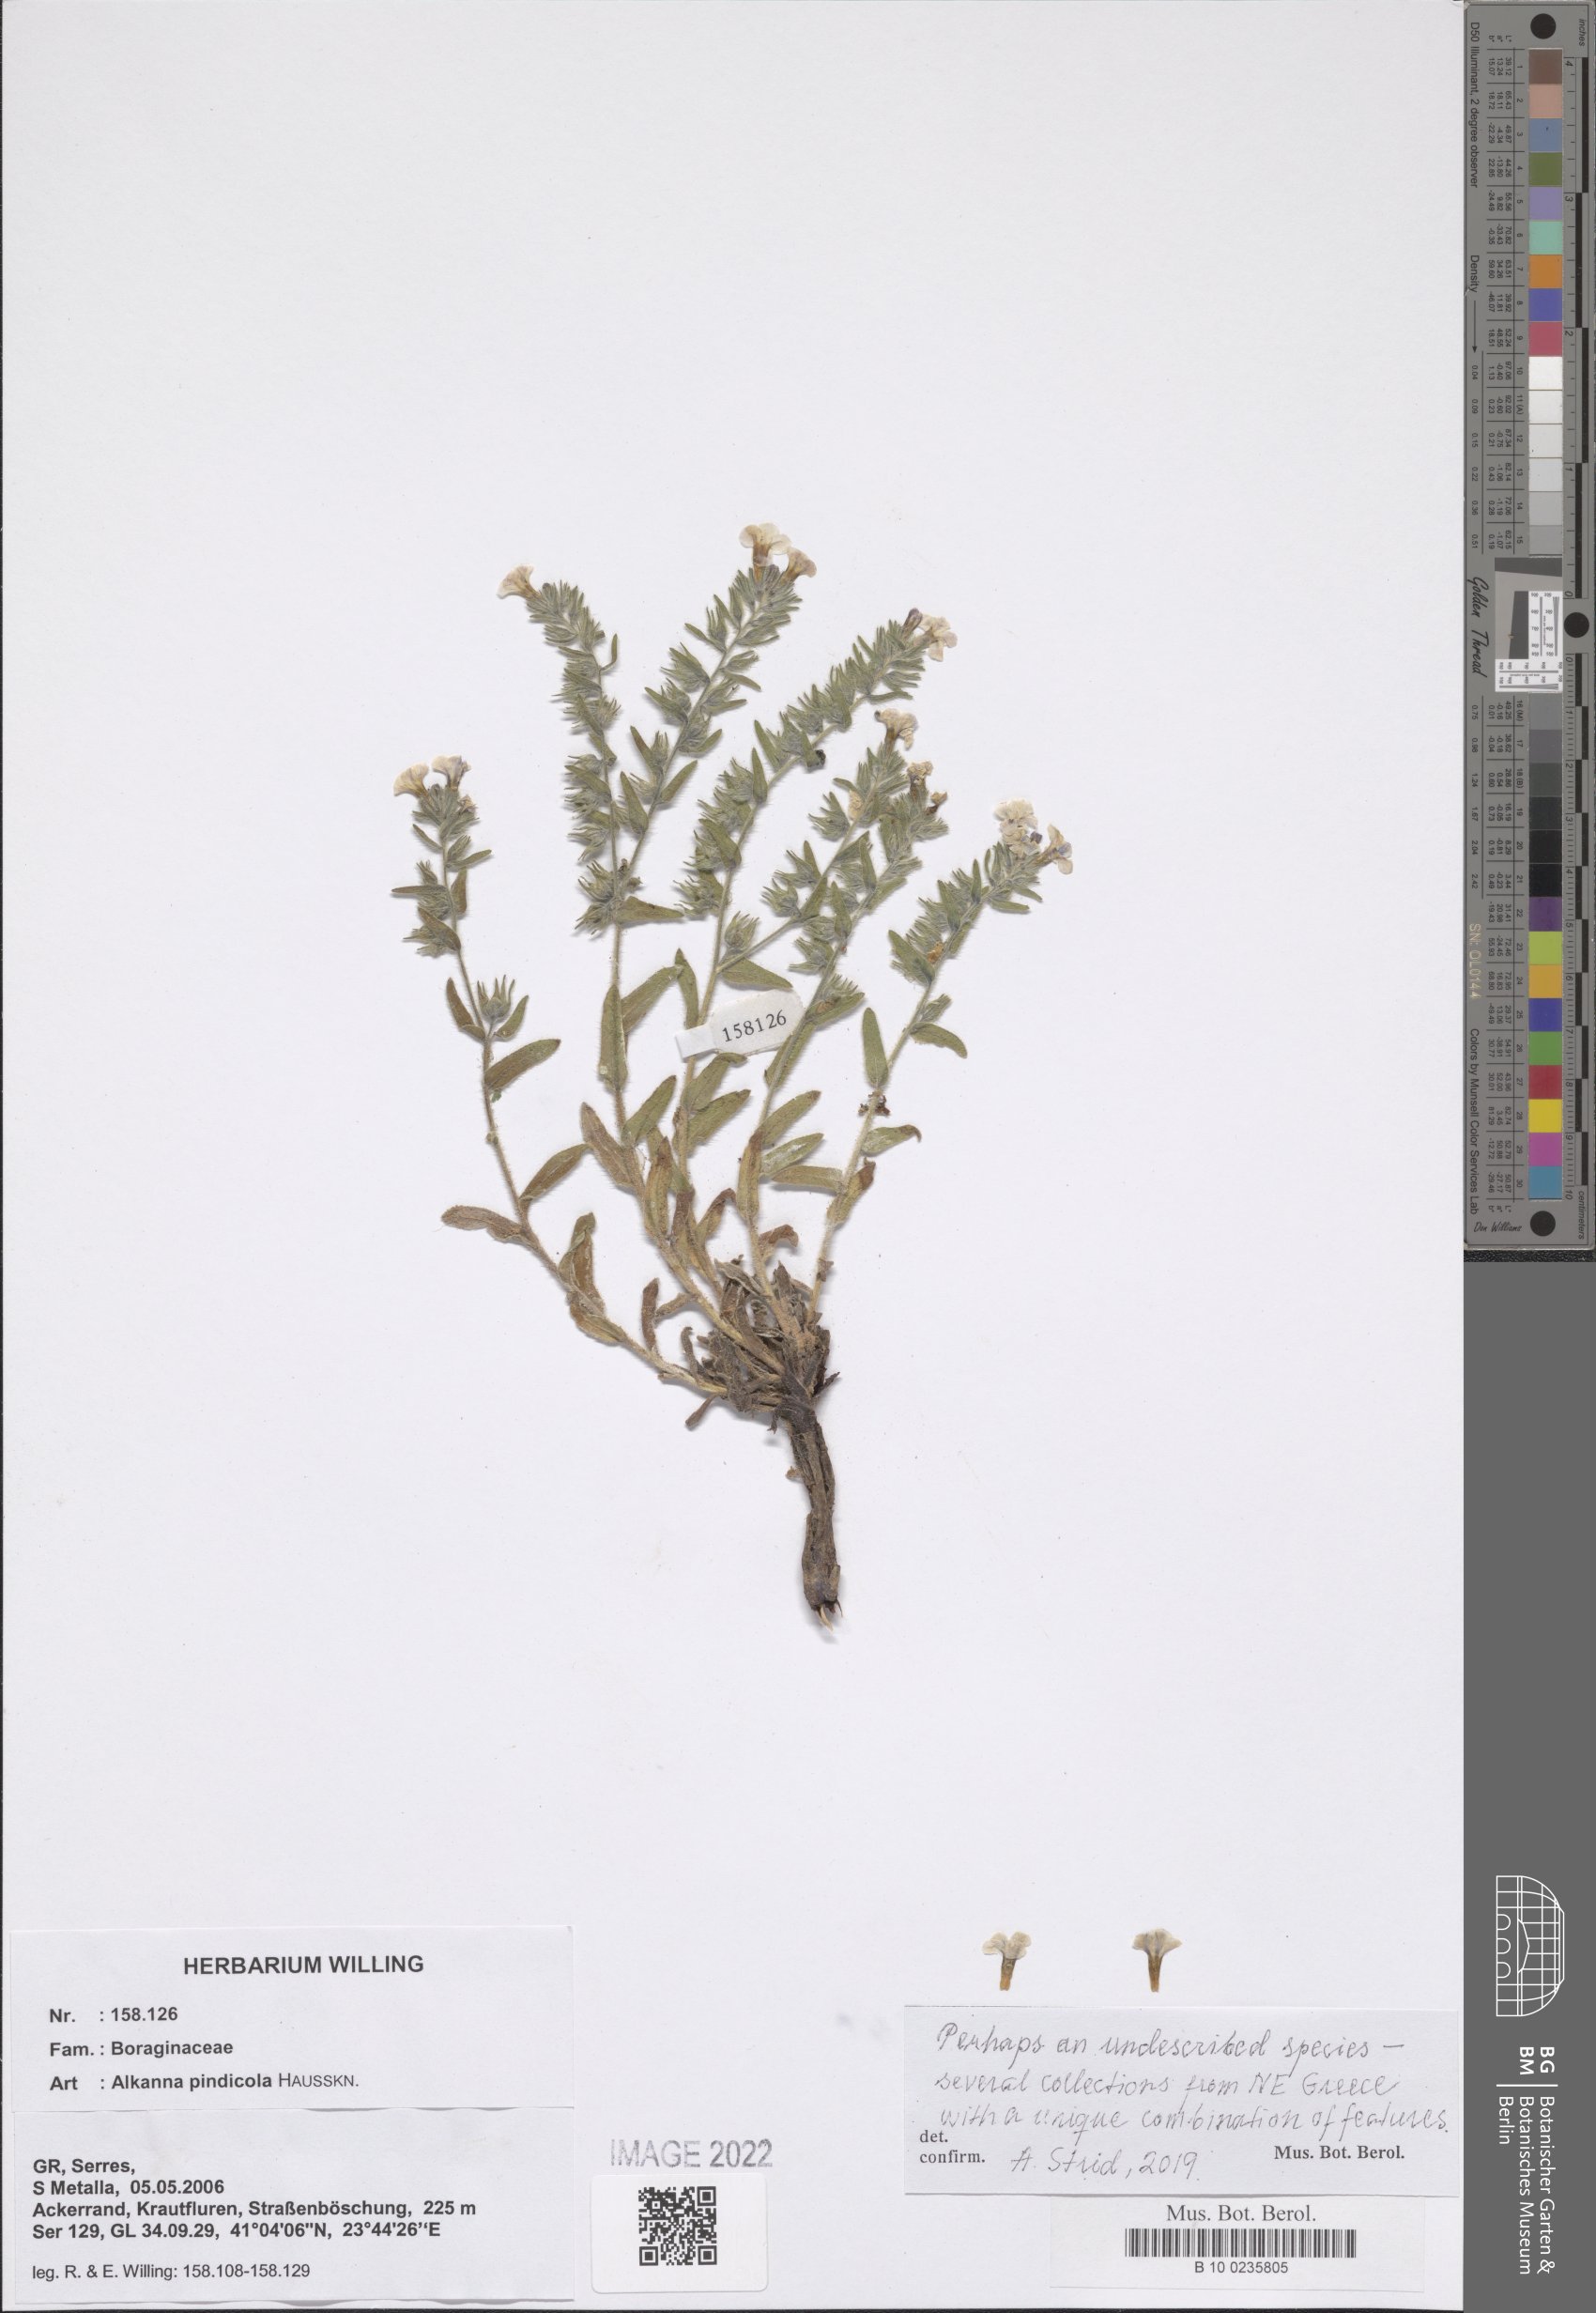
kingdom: Plantae
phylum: Tracheophyta
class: Magnoliopsida
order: Boraginales
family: Boraginaceae
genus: Alkanna
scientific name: Alkanna pindicola
